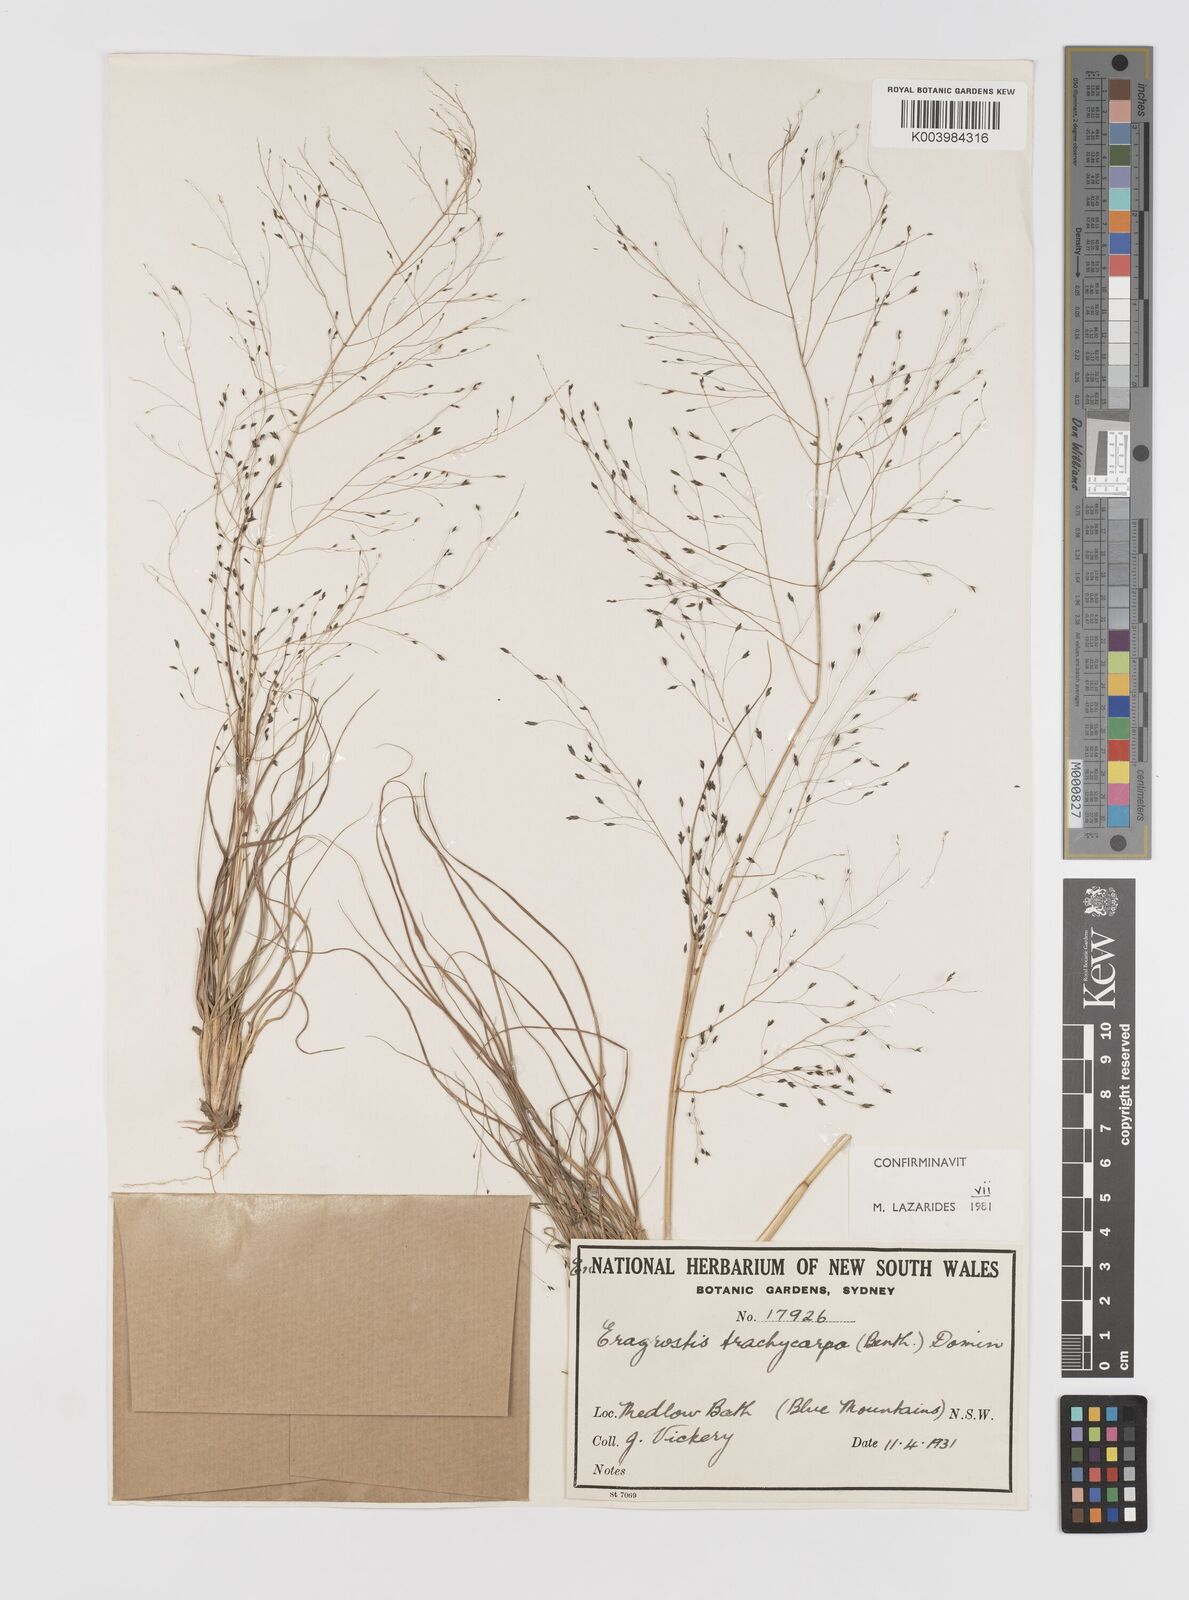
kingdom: Plantae
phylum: Tracheophyta
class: Liliopsida
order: Poales
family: Poaceae
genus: Eragrostis
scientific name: Eragrostis trachycarpa
